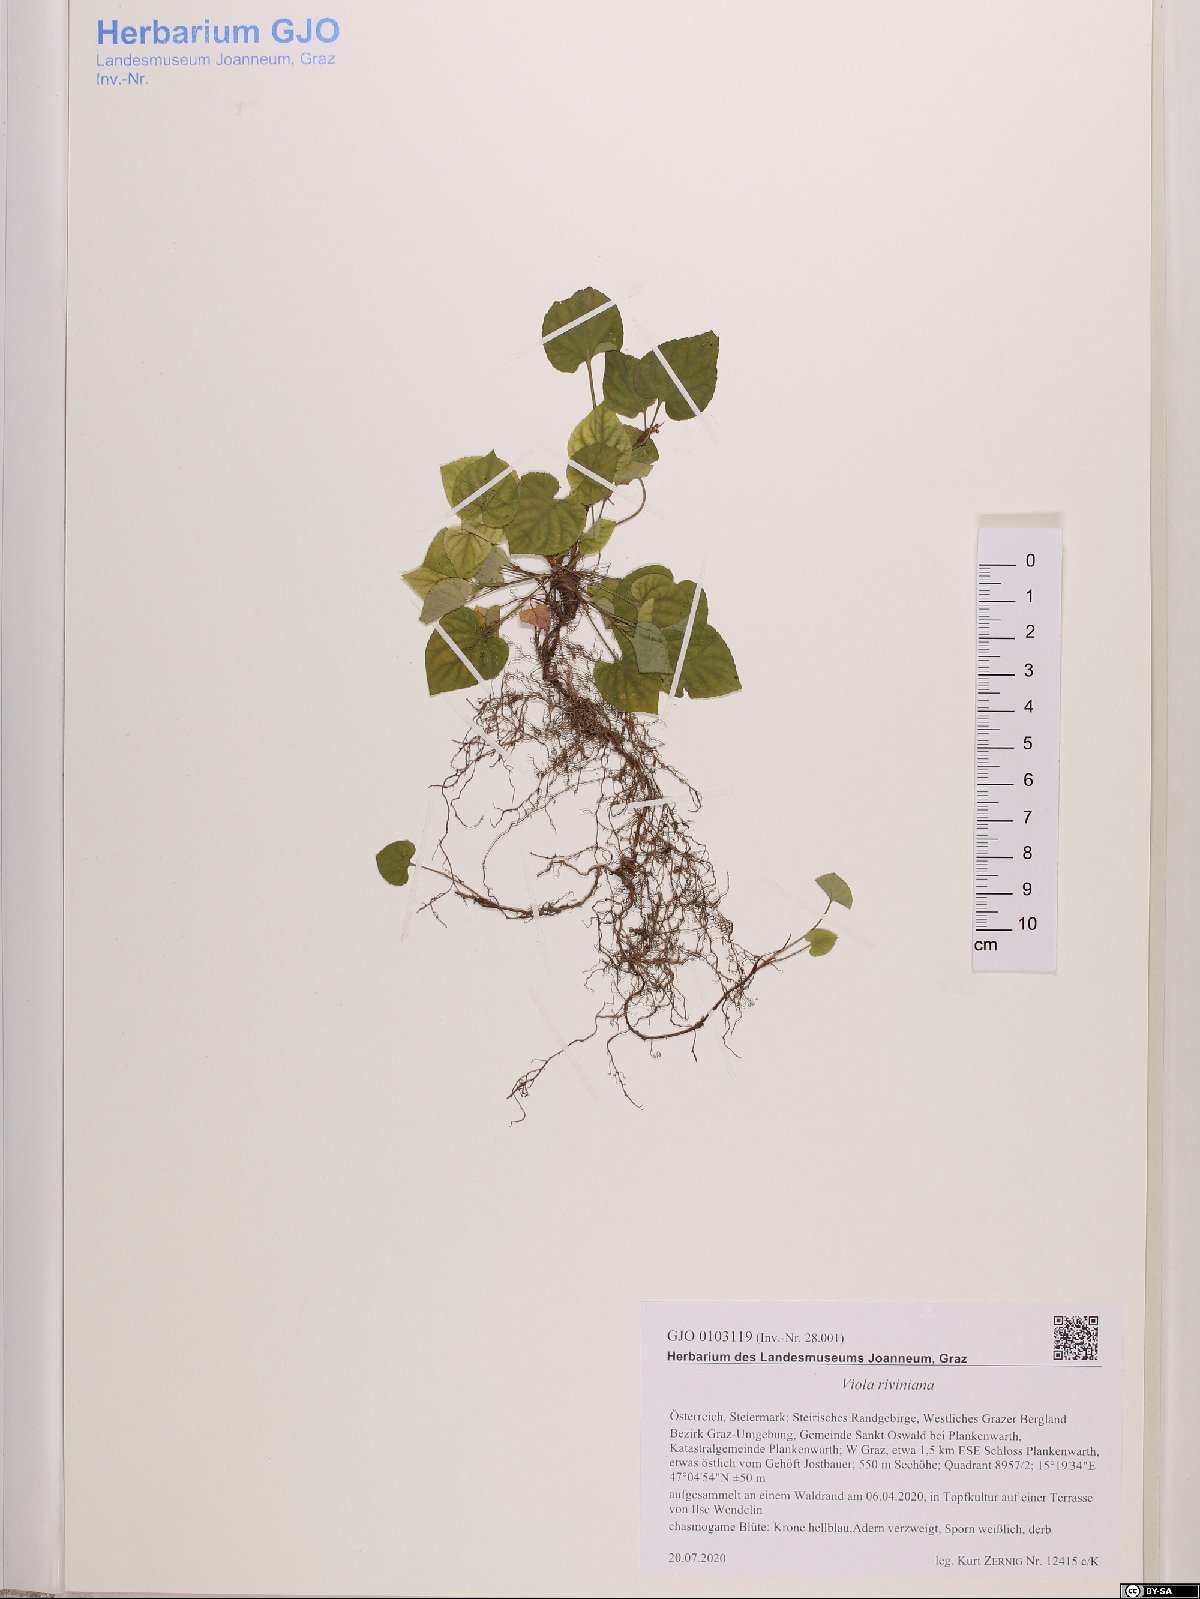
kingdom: Plantae
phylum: Tracheophyta
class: Magnoliopsida
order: Malpighiales
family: Violaceae
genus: Viola
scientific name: Viola riviniana
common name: Common dog-violet
